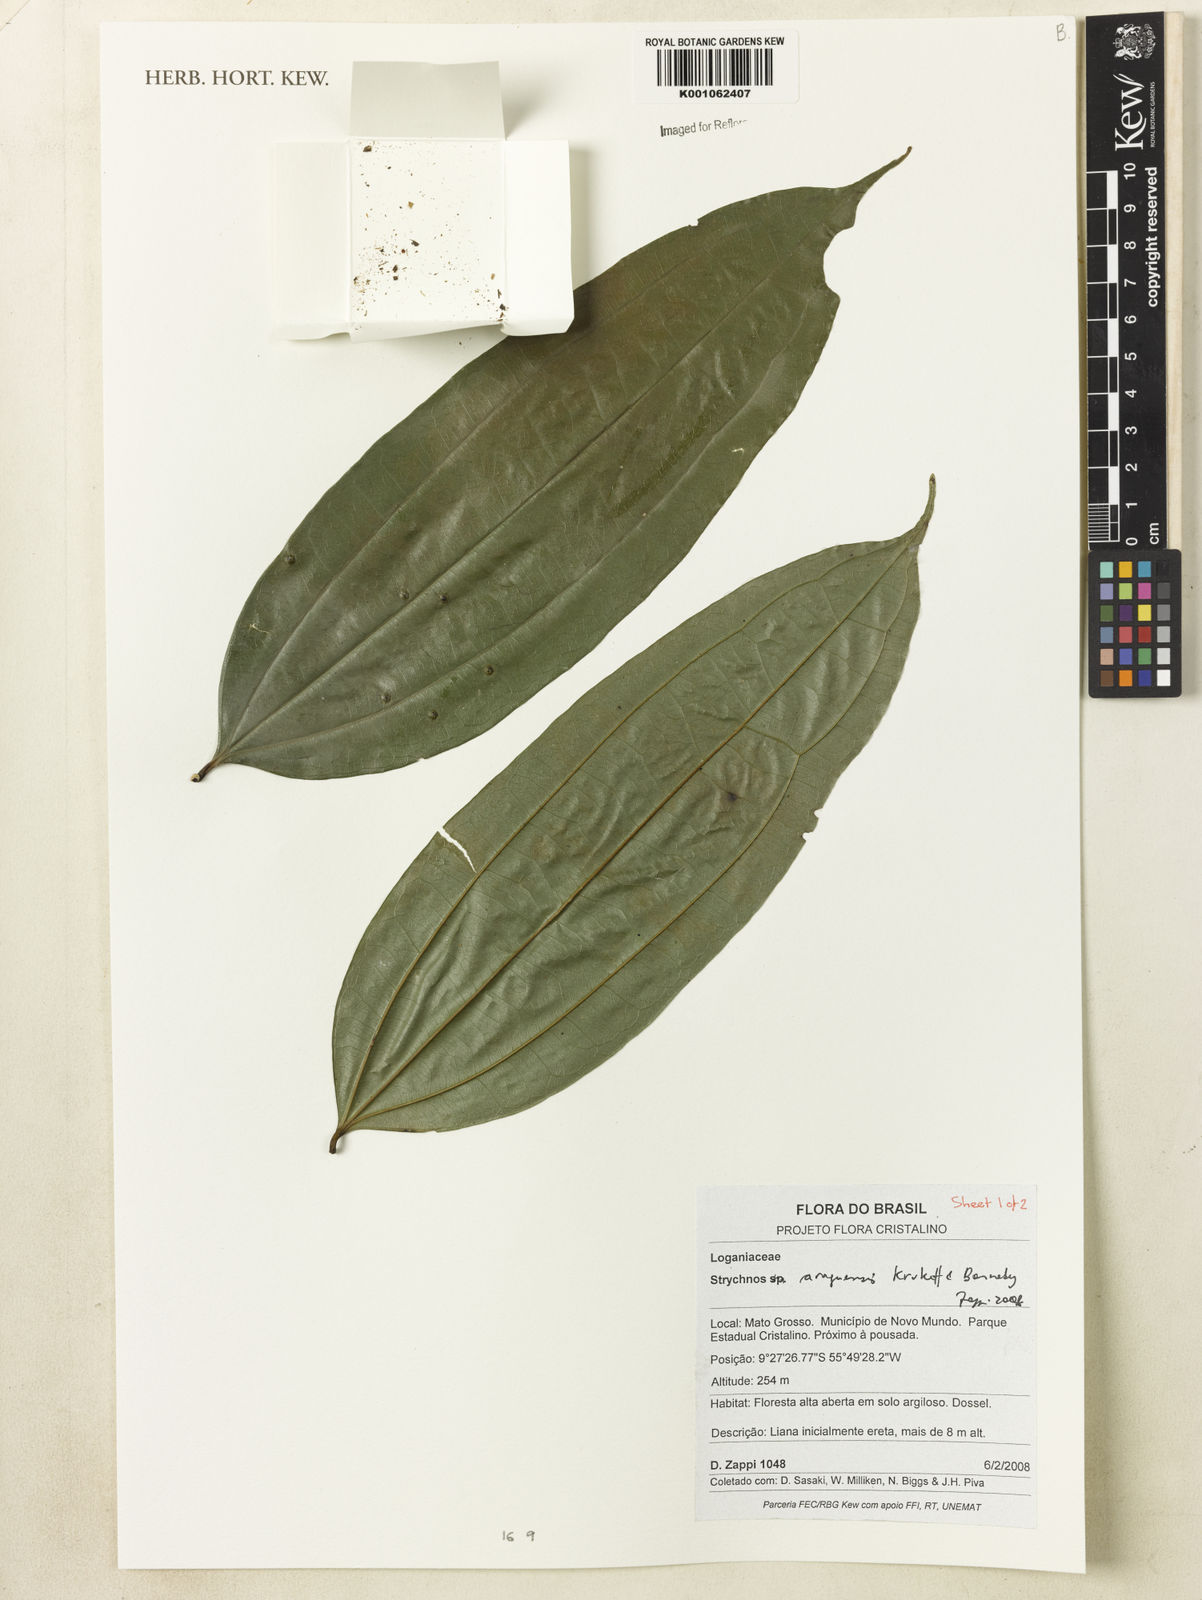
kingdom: Plantae
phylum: Tracheophyta
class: Magnoliopsida
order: Gentianales
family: Loganiaceae
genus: Strychnos
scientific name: Strychnos araguaensis
